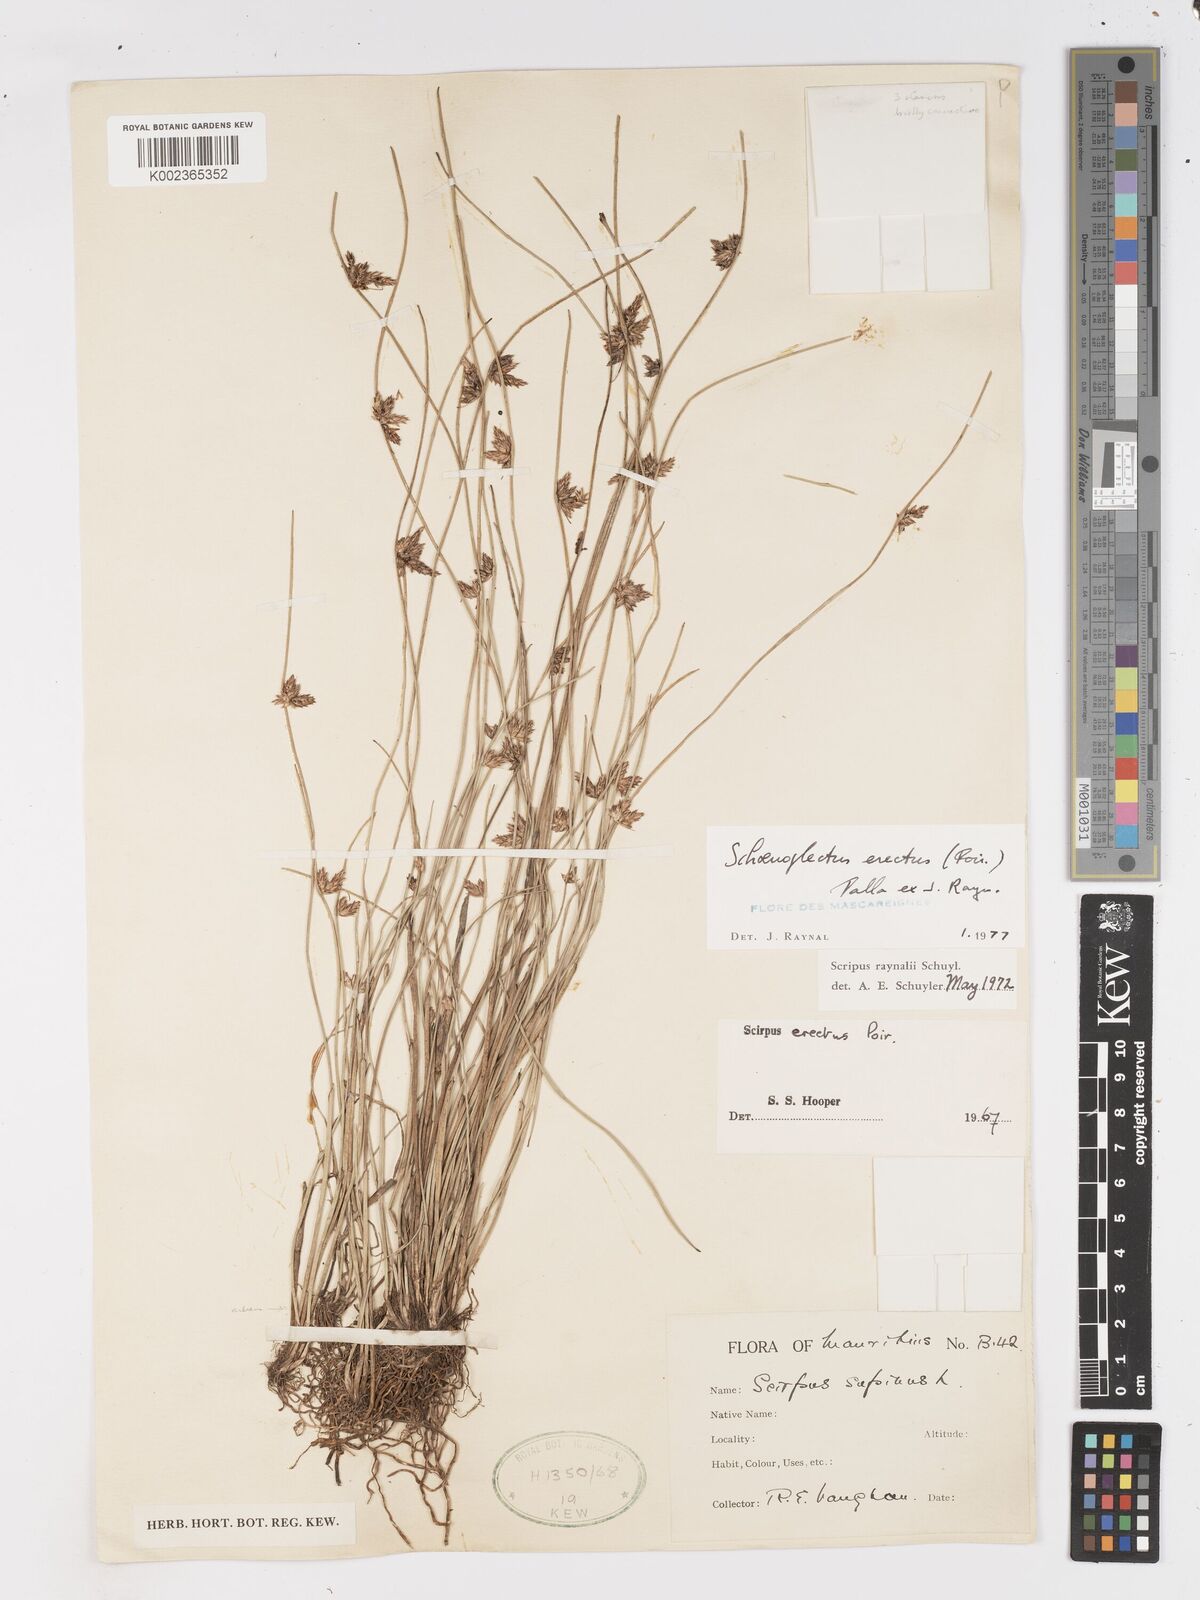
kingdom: Plantae
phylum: Tracheophyta
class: Liliopsida
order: Poales
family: Cyperaceae
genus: Schoenoplectiella
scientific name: Schoenoplectiella erecta
